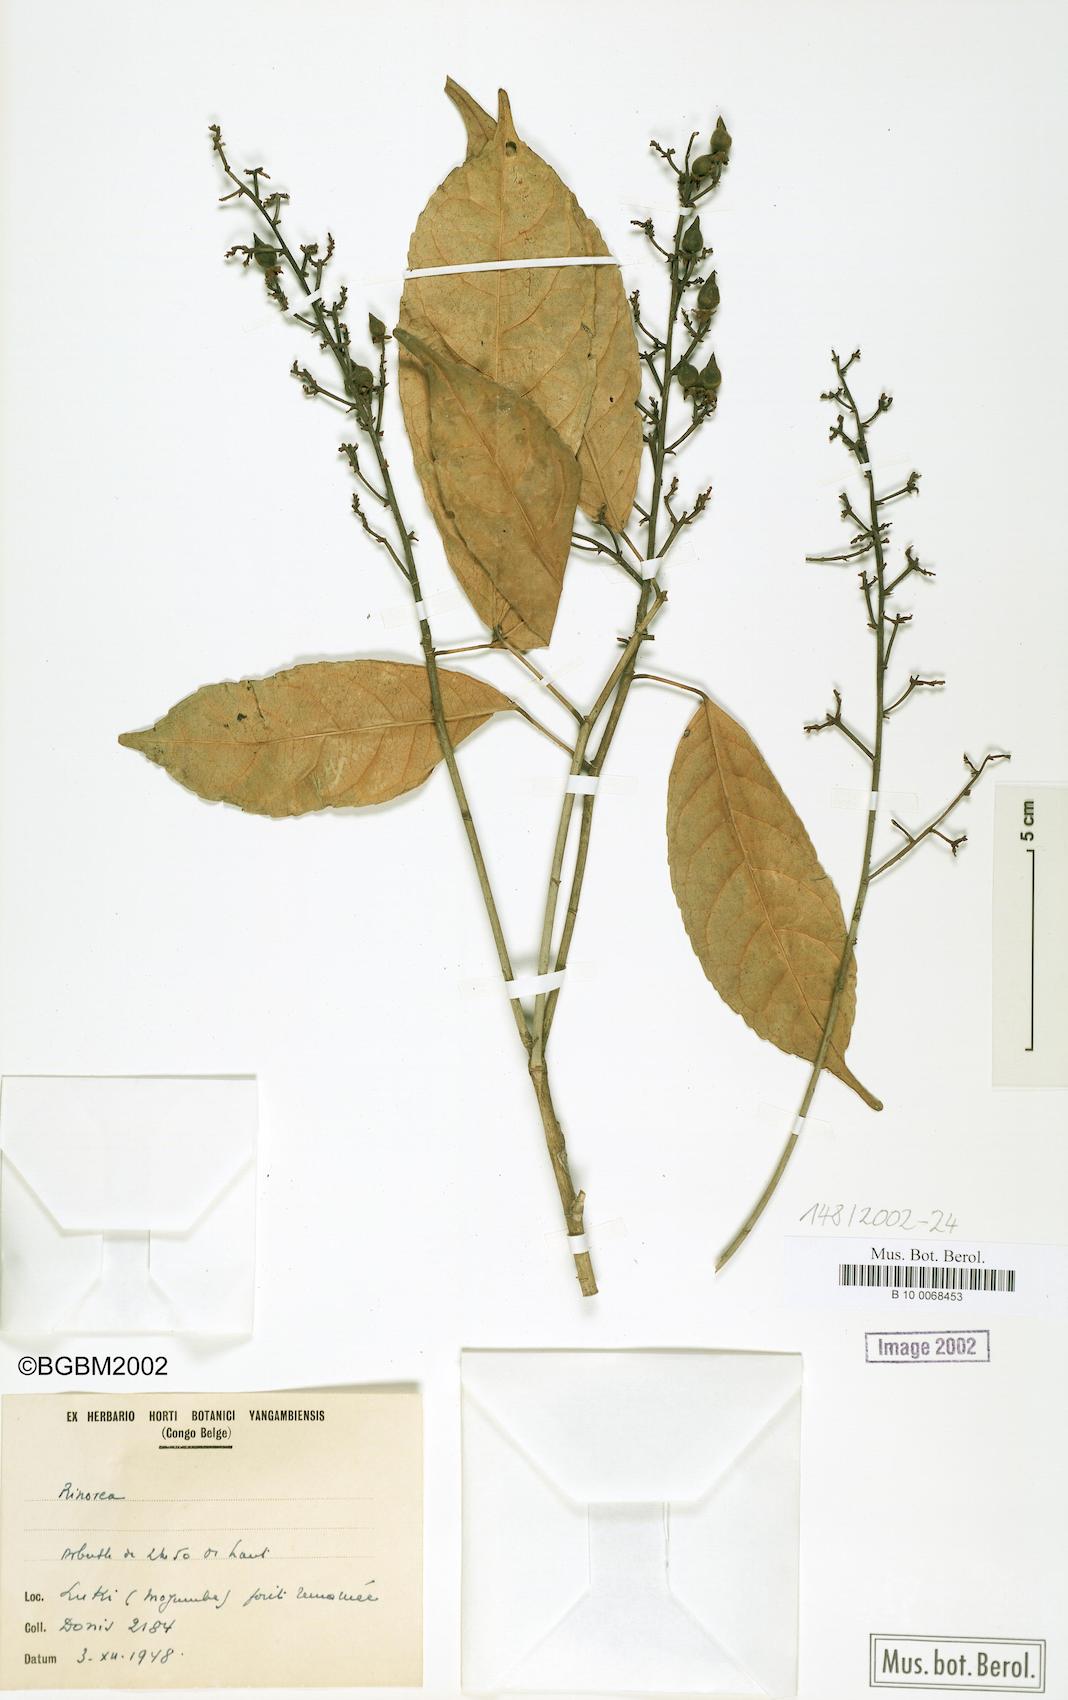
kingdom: Plantae
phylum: Tracheophyta
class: Magnoliopsida
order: Malpighiales
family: Violaceae
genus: Rinorea
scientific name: Rinorea
